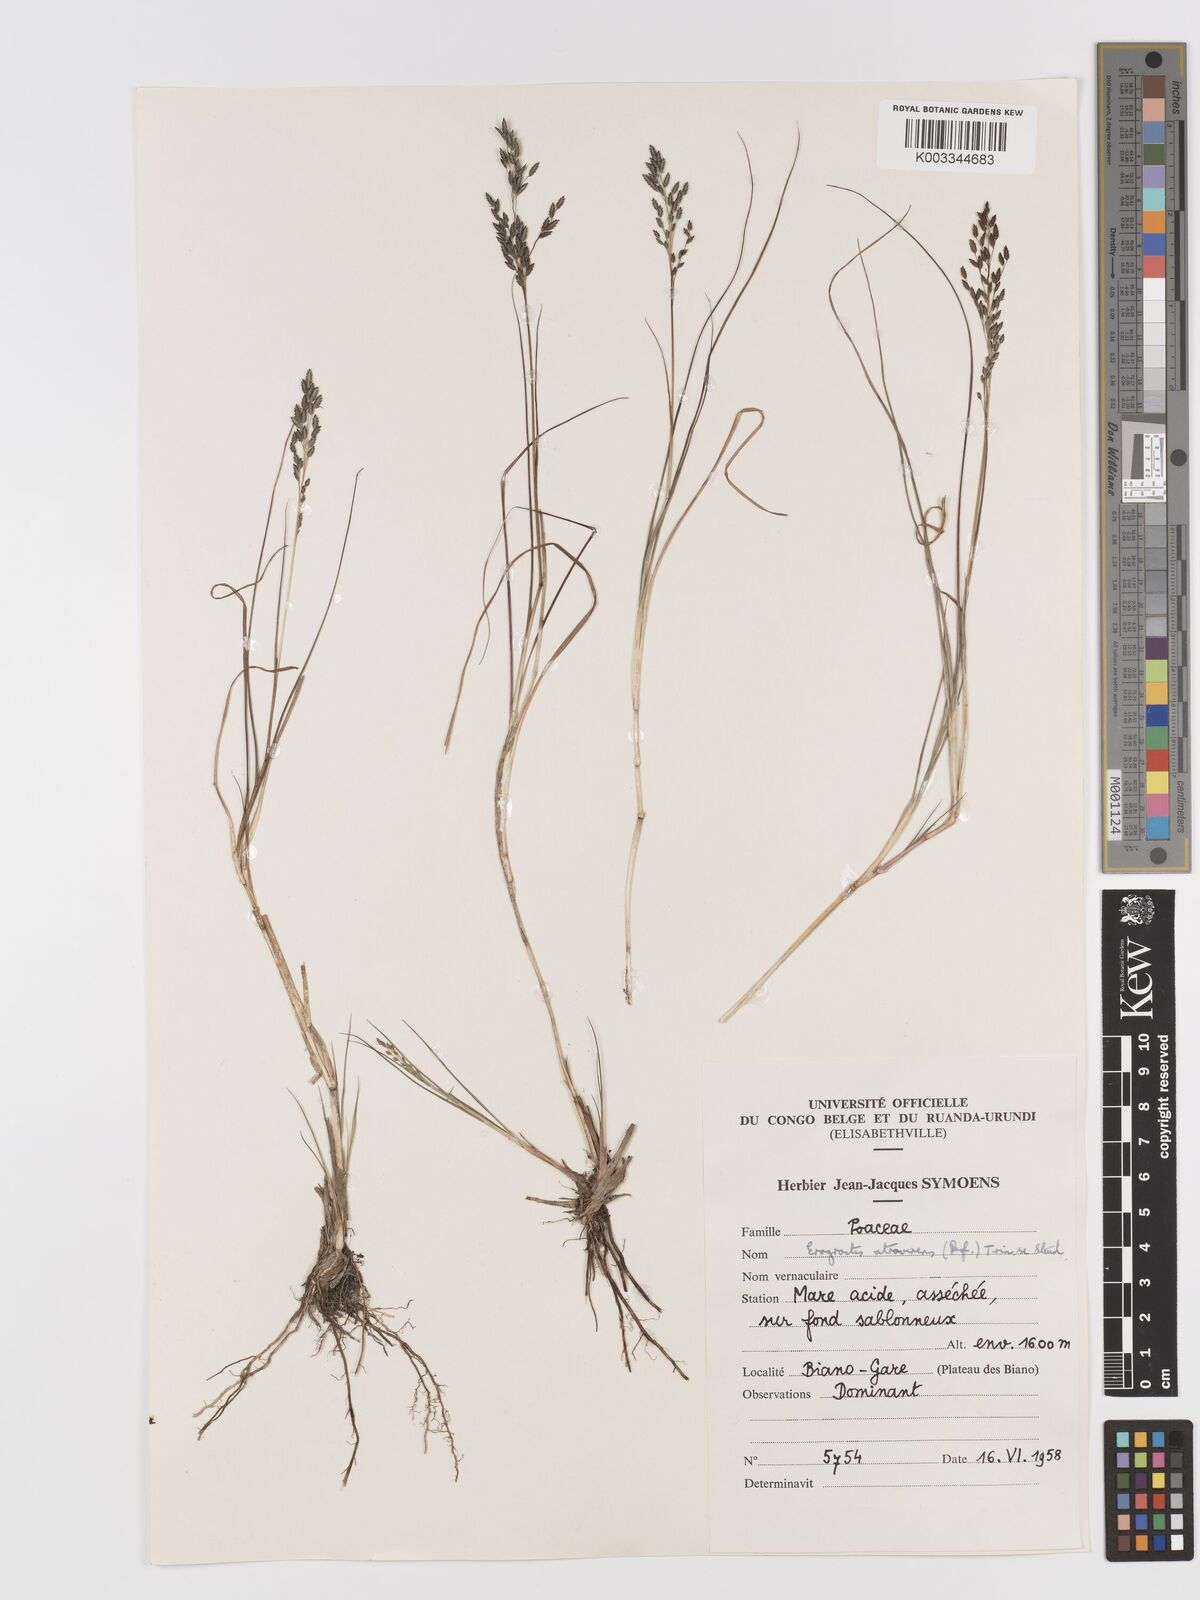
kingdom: Plantae
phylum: Tracheophyta
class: Liliopsida
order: Poales
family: Poaceae
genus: Eragrostis
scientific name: Eragrostis atrovirens
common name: Thalia lovegrass
